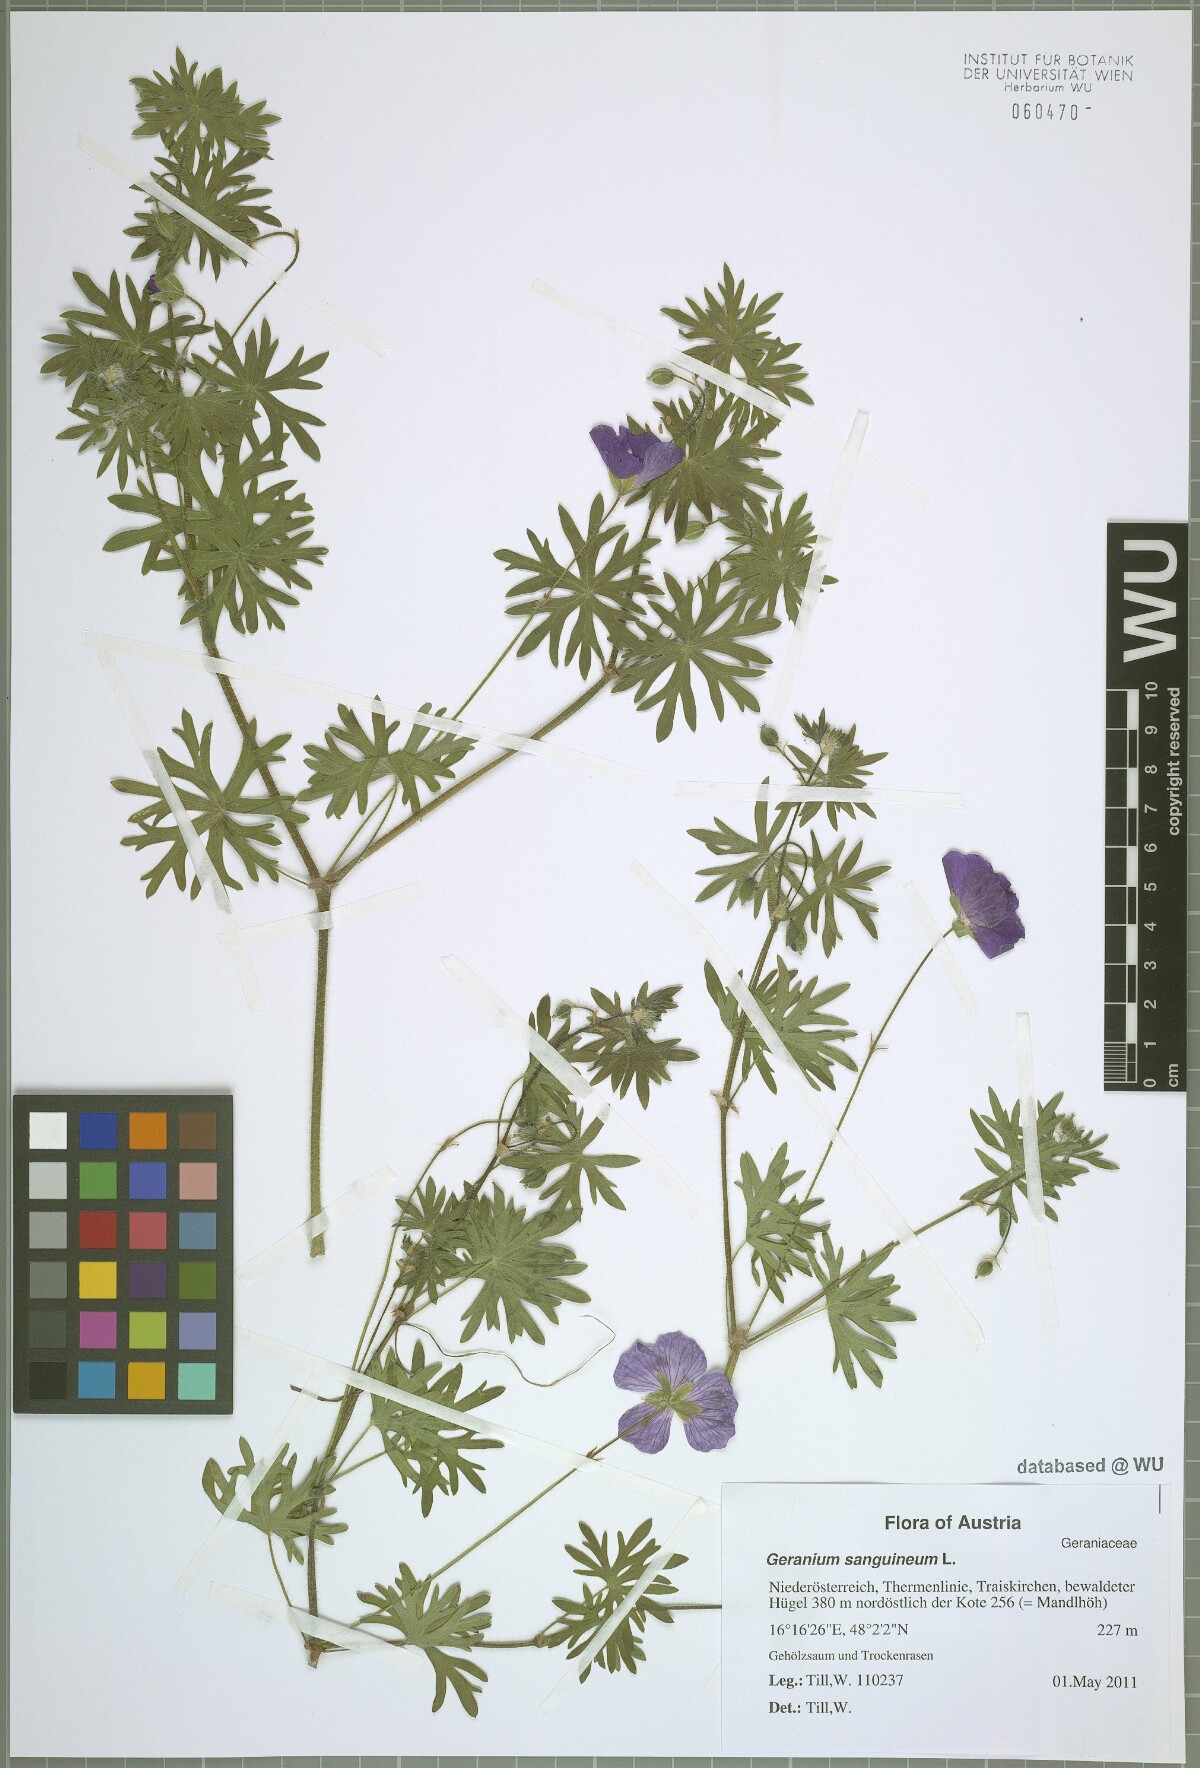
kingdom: Plantae
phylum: Tracheophyta
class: Magnoliopsida
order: Geraniales
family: Geraniaceae
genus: Geranium
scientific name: Geranium sanguineum
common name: Bloody crane's-bill
